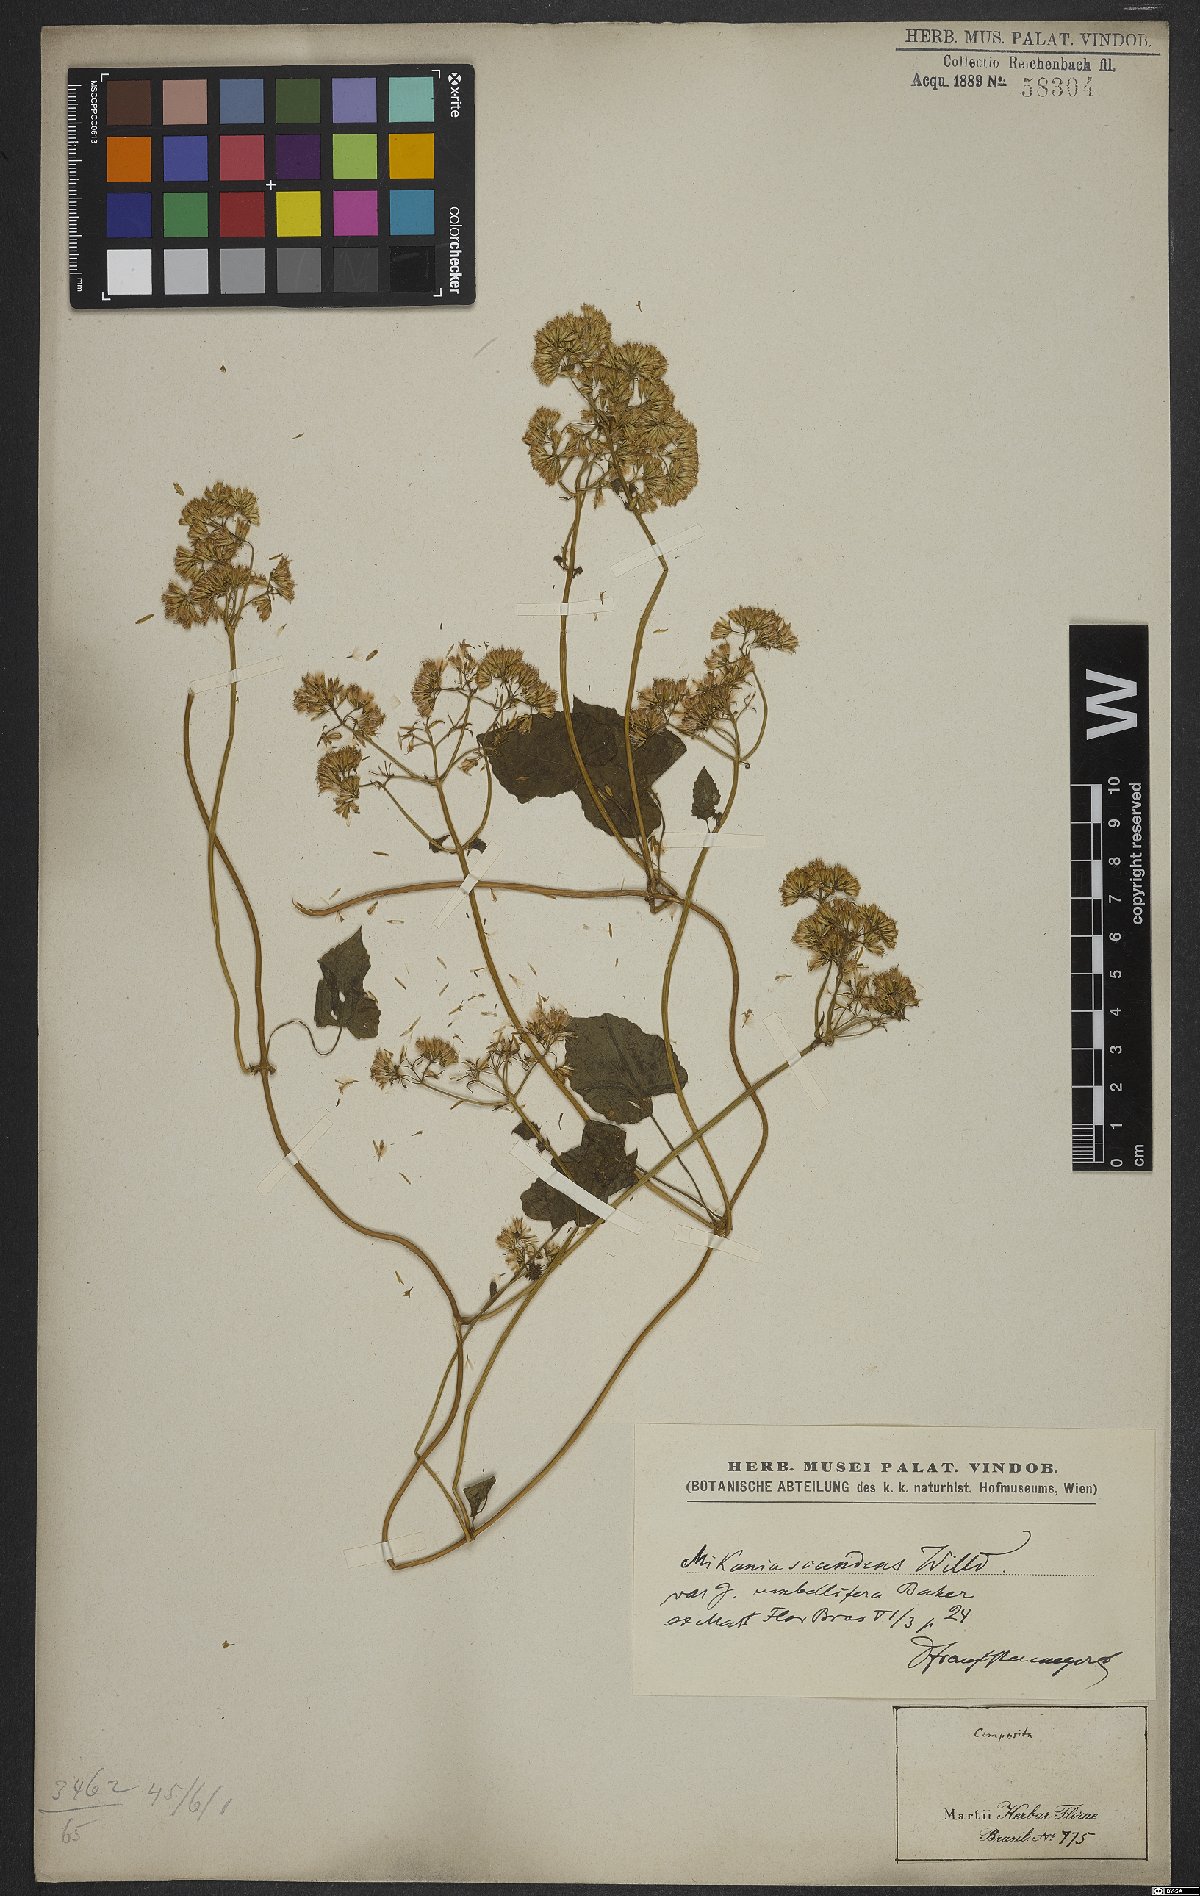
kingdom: Plantae
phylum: Tracheophyta
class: Magnoliopsida
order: Asterales
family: Asteraceae
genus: Mikania
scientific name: Mikania scandens
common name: Climbing hempvine
